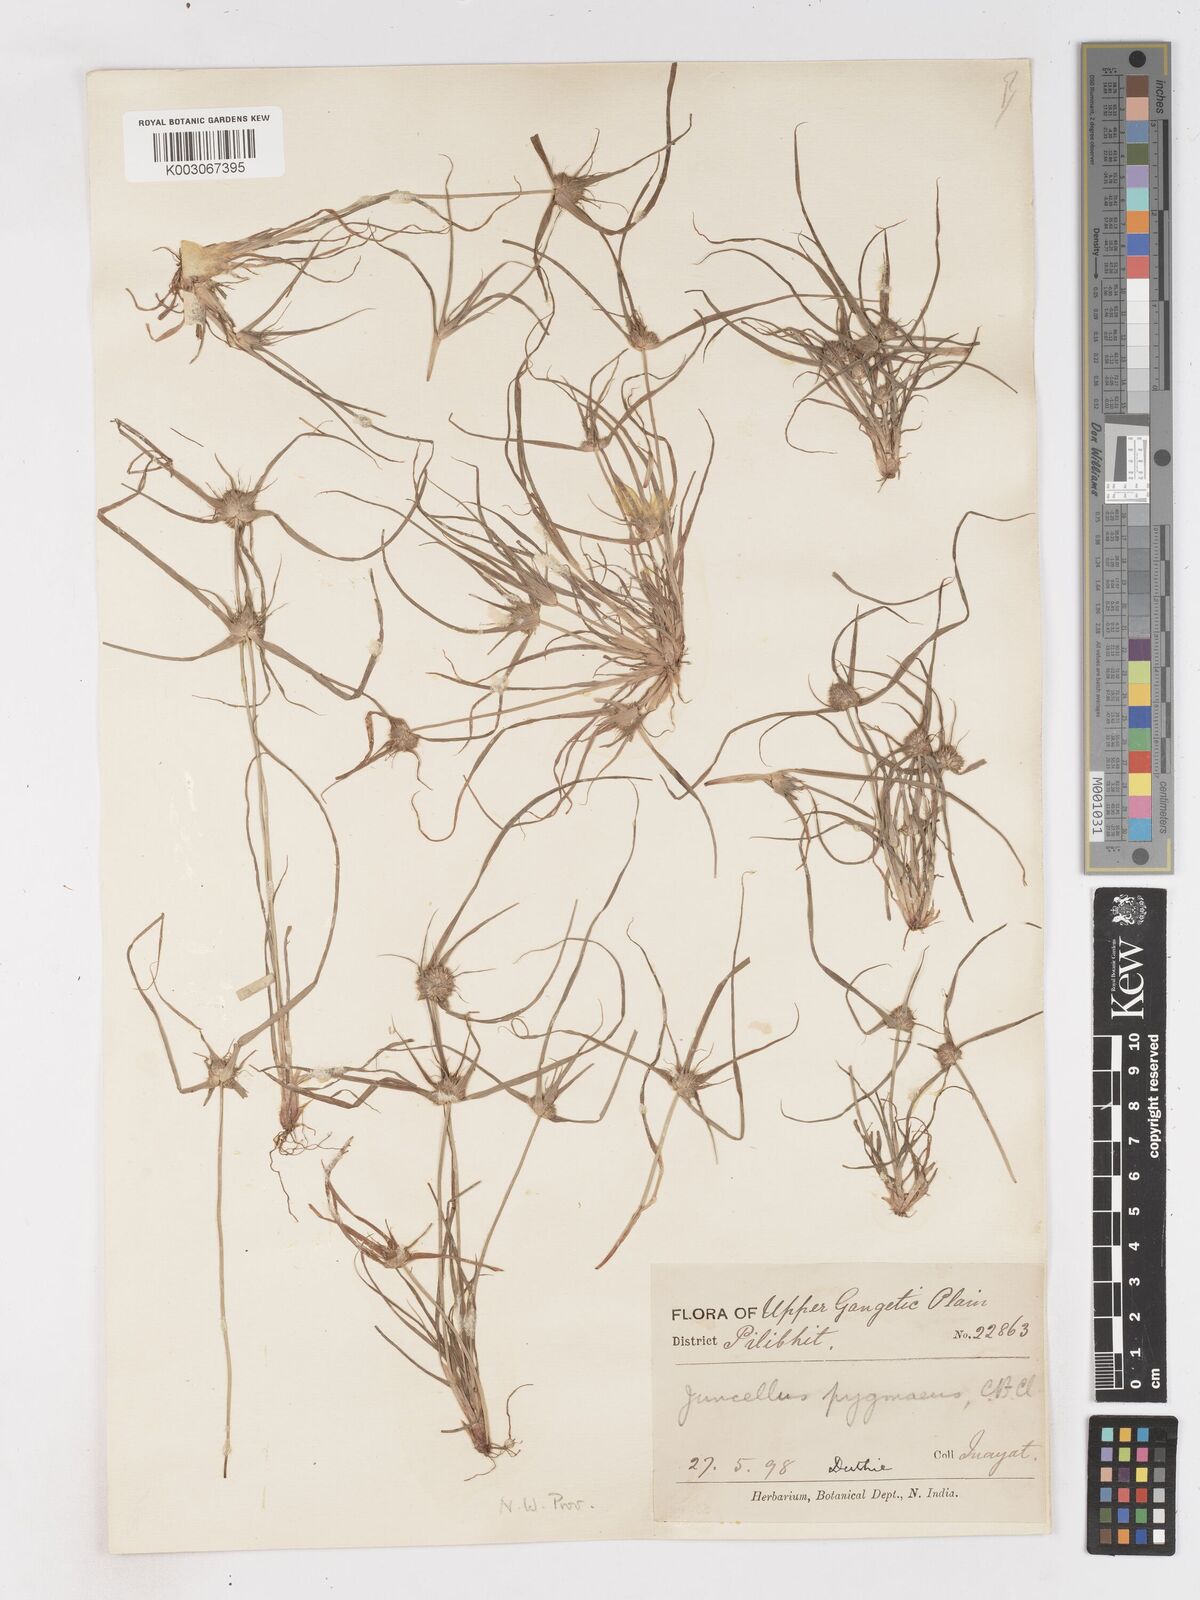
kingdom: Plantae
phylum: Tracheophyta
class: Liliopsida
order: Poales
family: Cyperaceae
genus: Cyperus
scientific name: Cyperus michelianus
